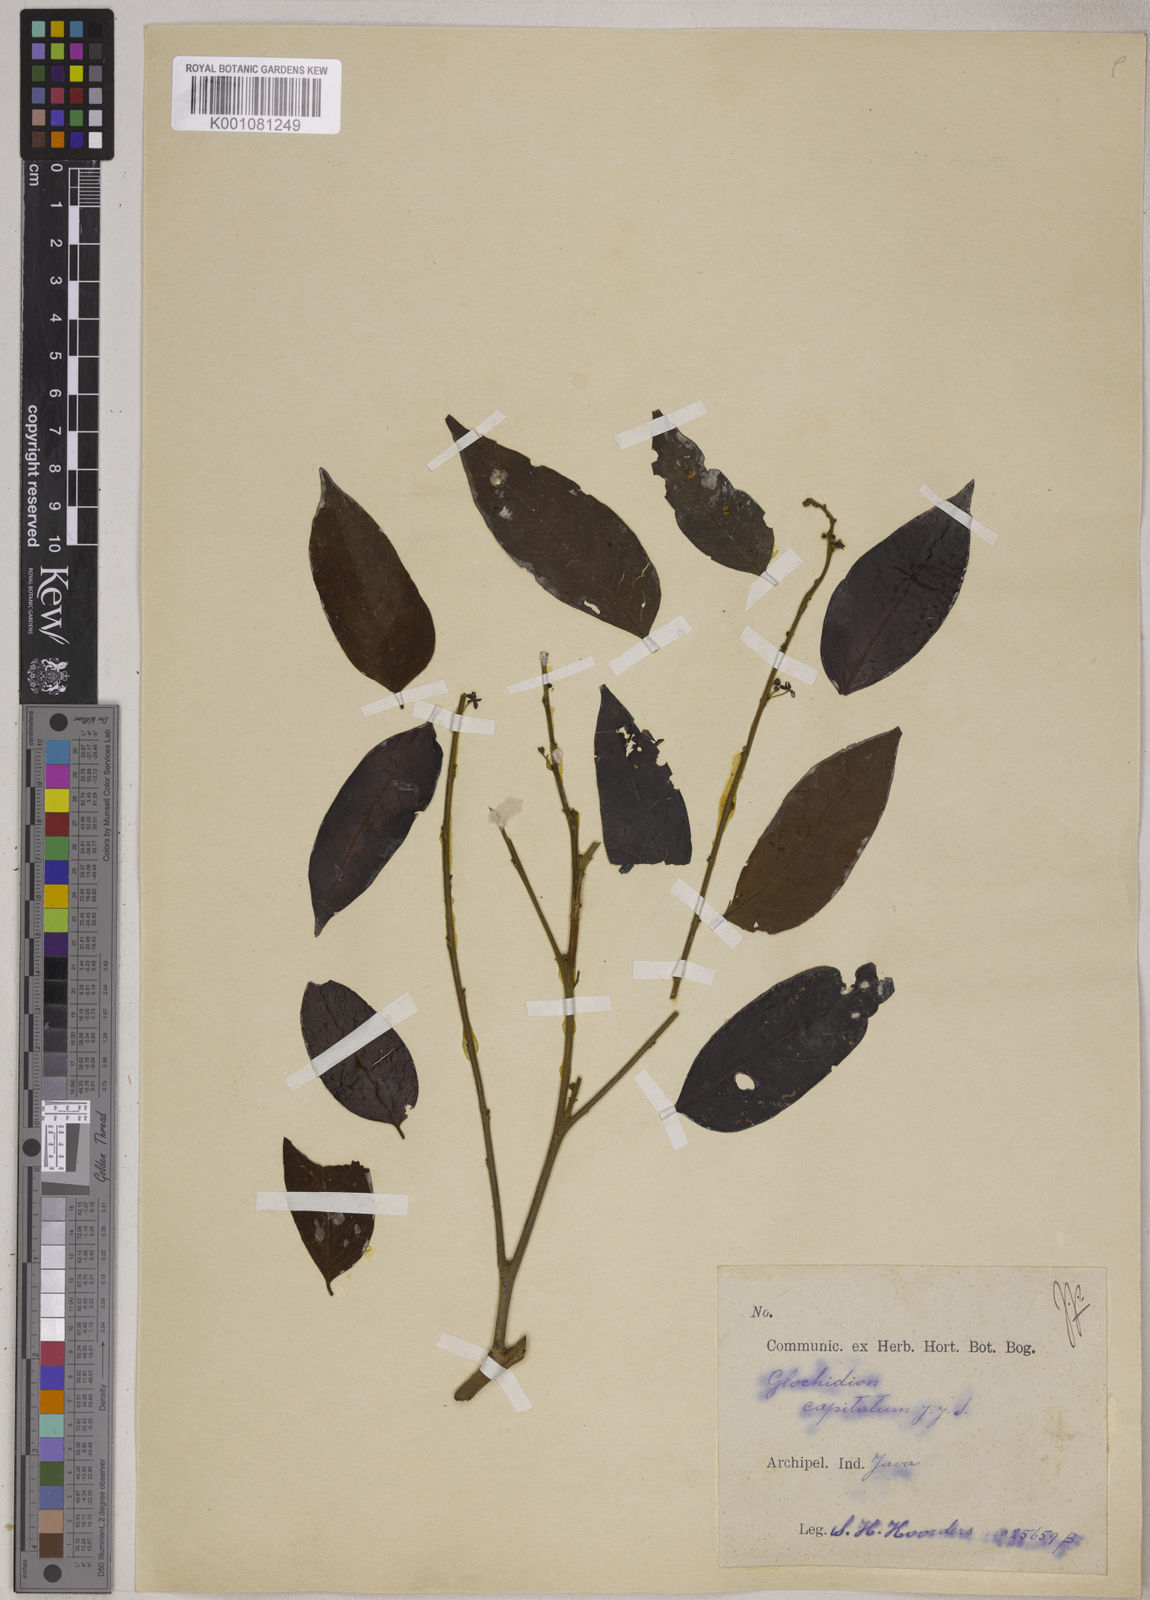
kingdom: Plantae
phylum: Tracheophyta
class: Magnoliopsida
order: Malpighiales
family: Phyllanthaceae
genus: Glochidion
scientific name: Glochidion macrostigma
